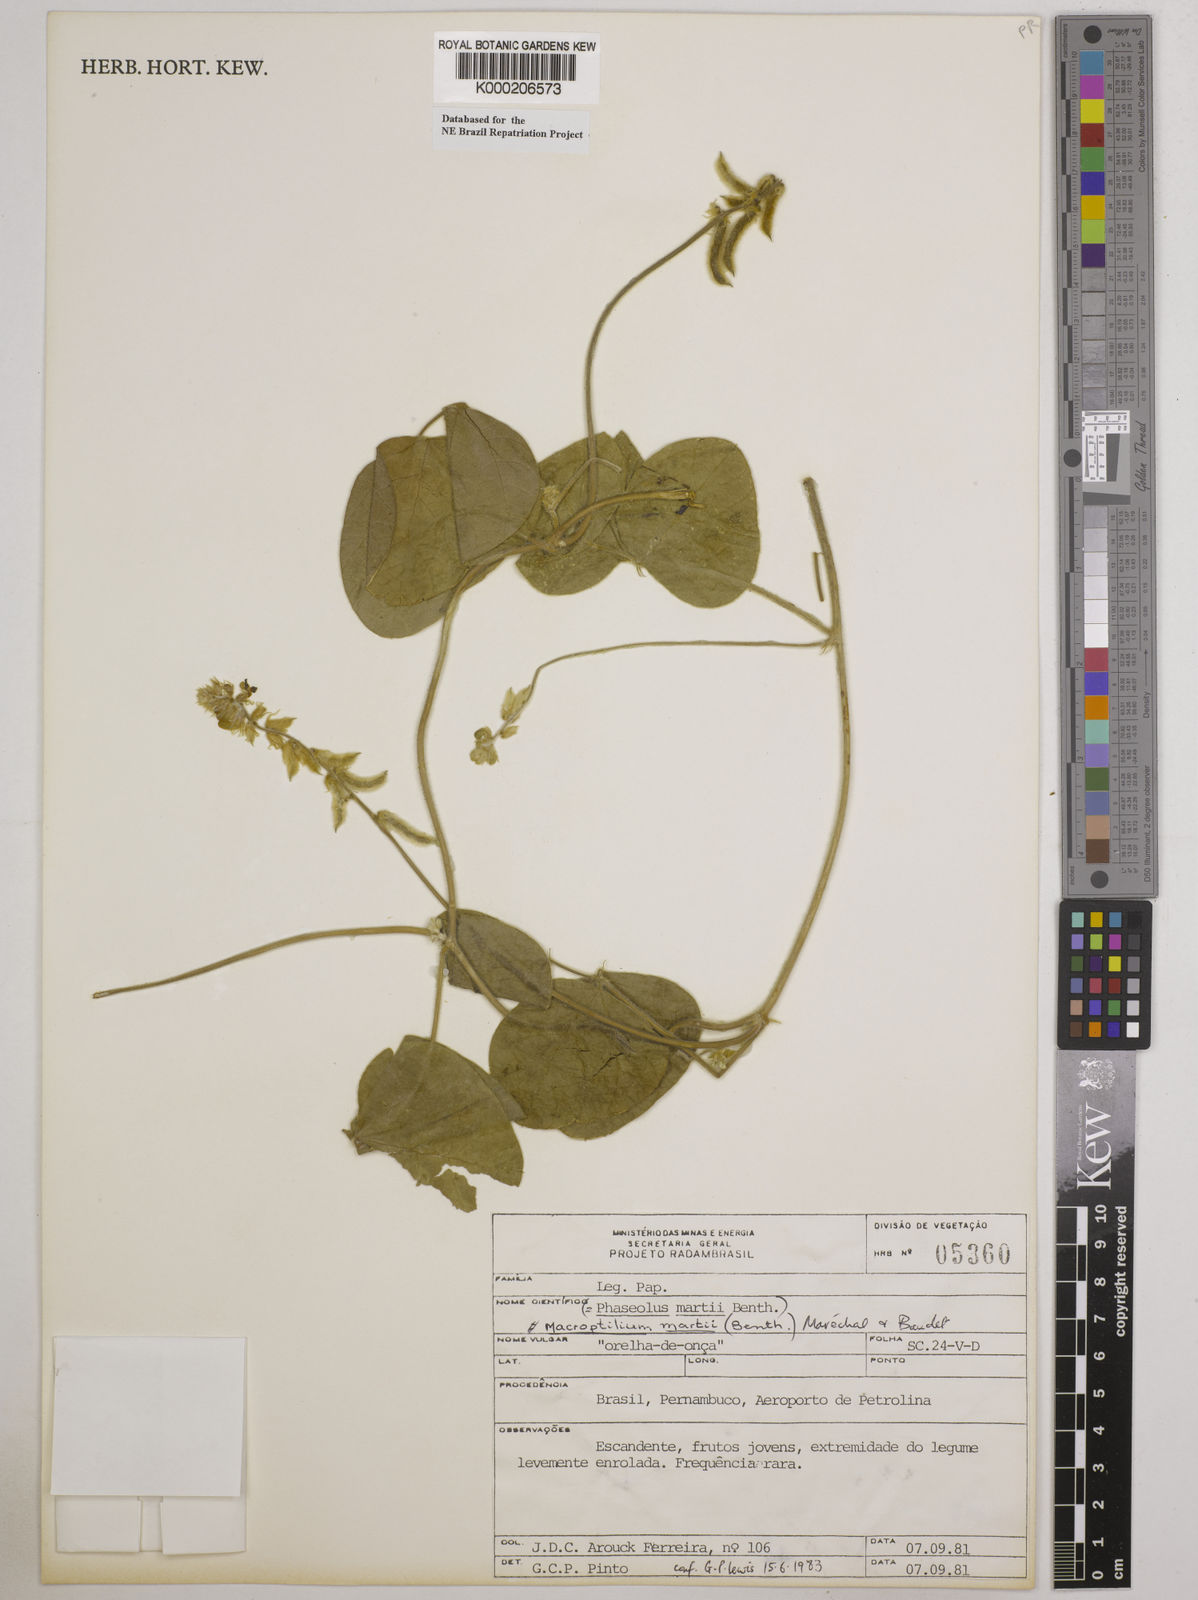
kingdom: Plantae
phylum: Tracheophyta
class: Magnoliopsida
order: Fabales
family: Fabaceae
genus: Macroptilium
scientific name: Macroptilium
